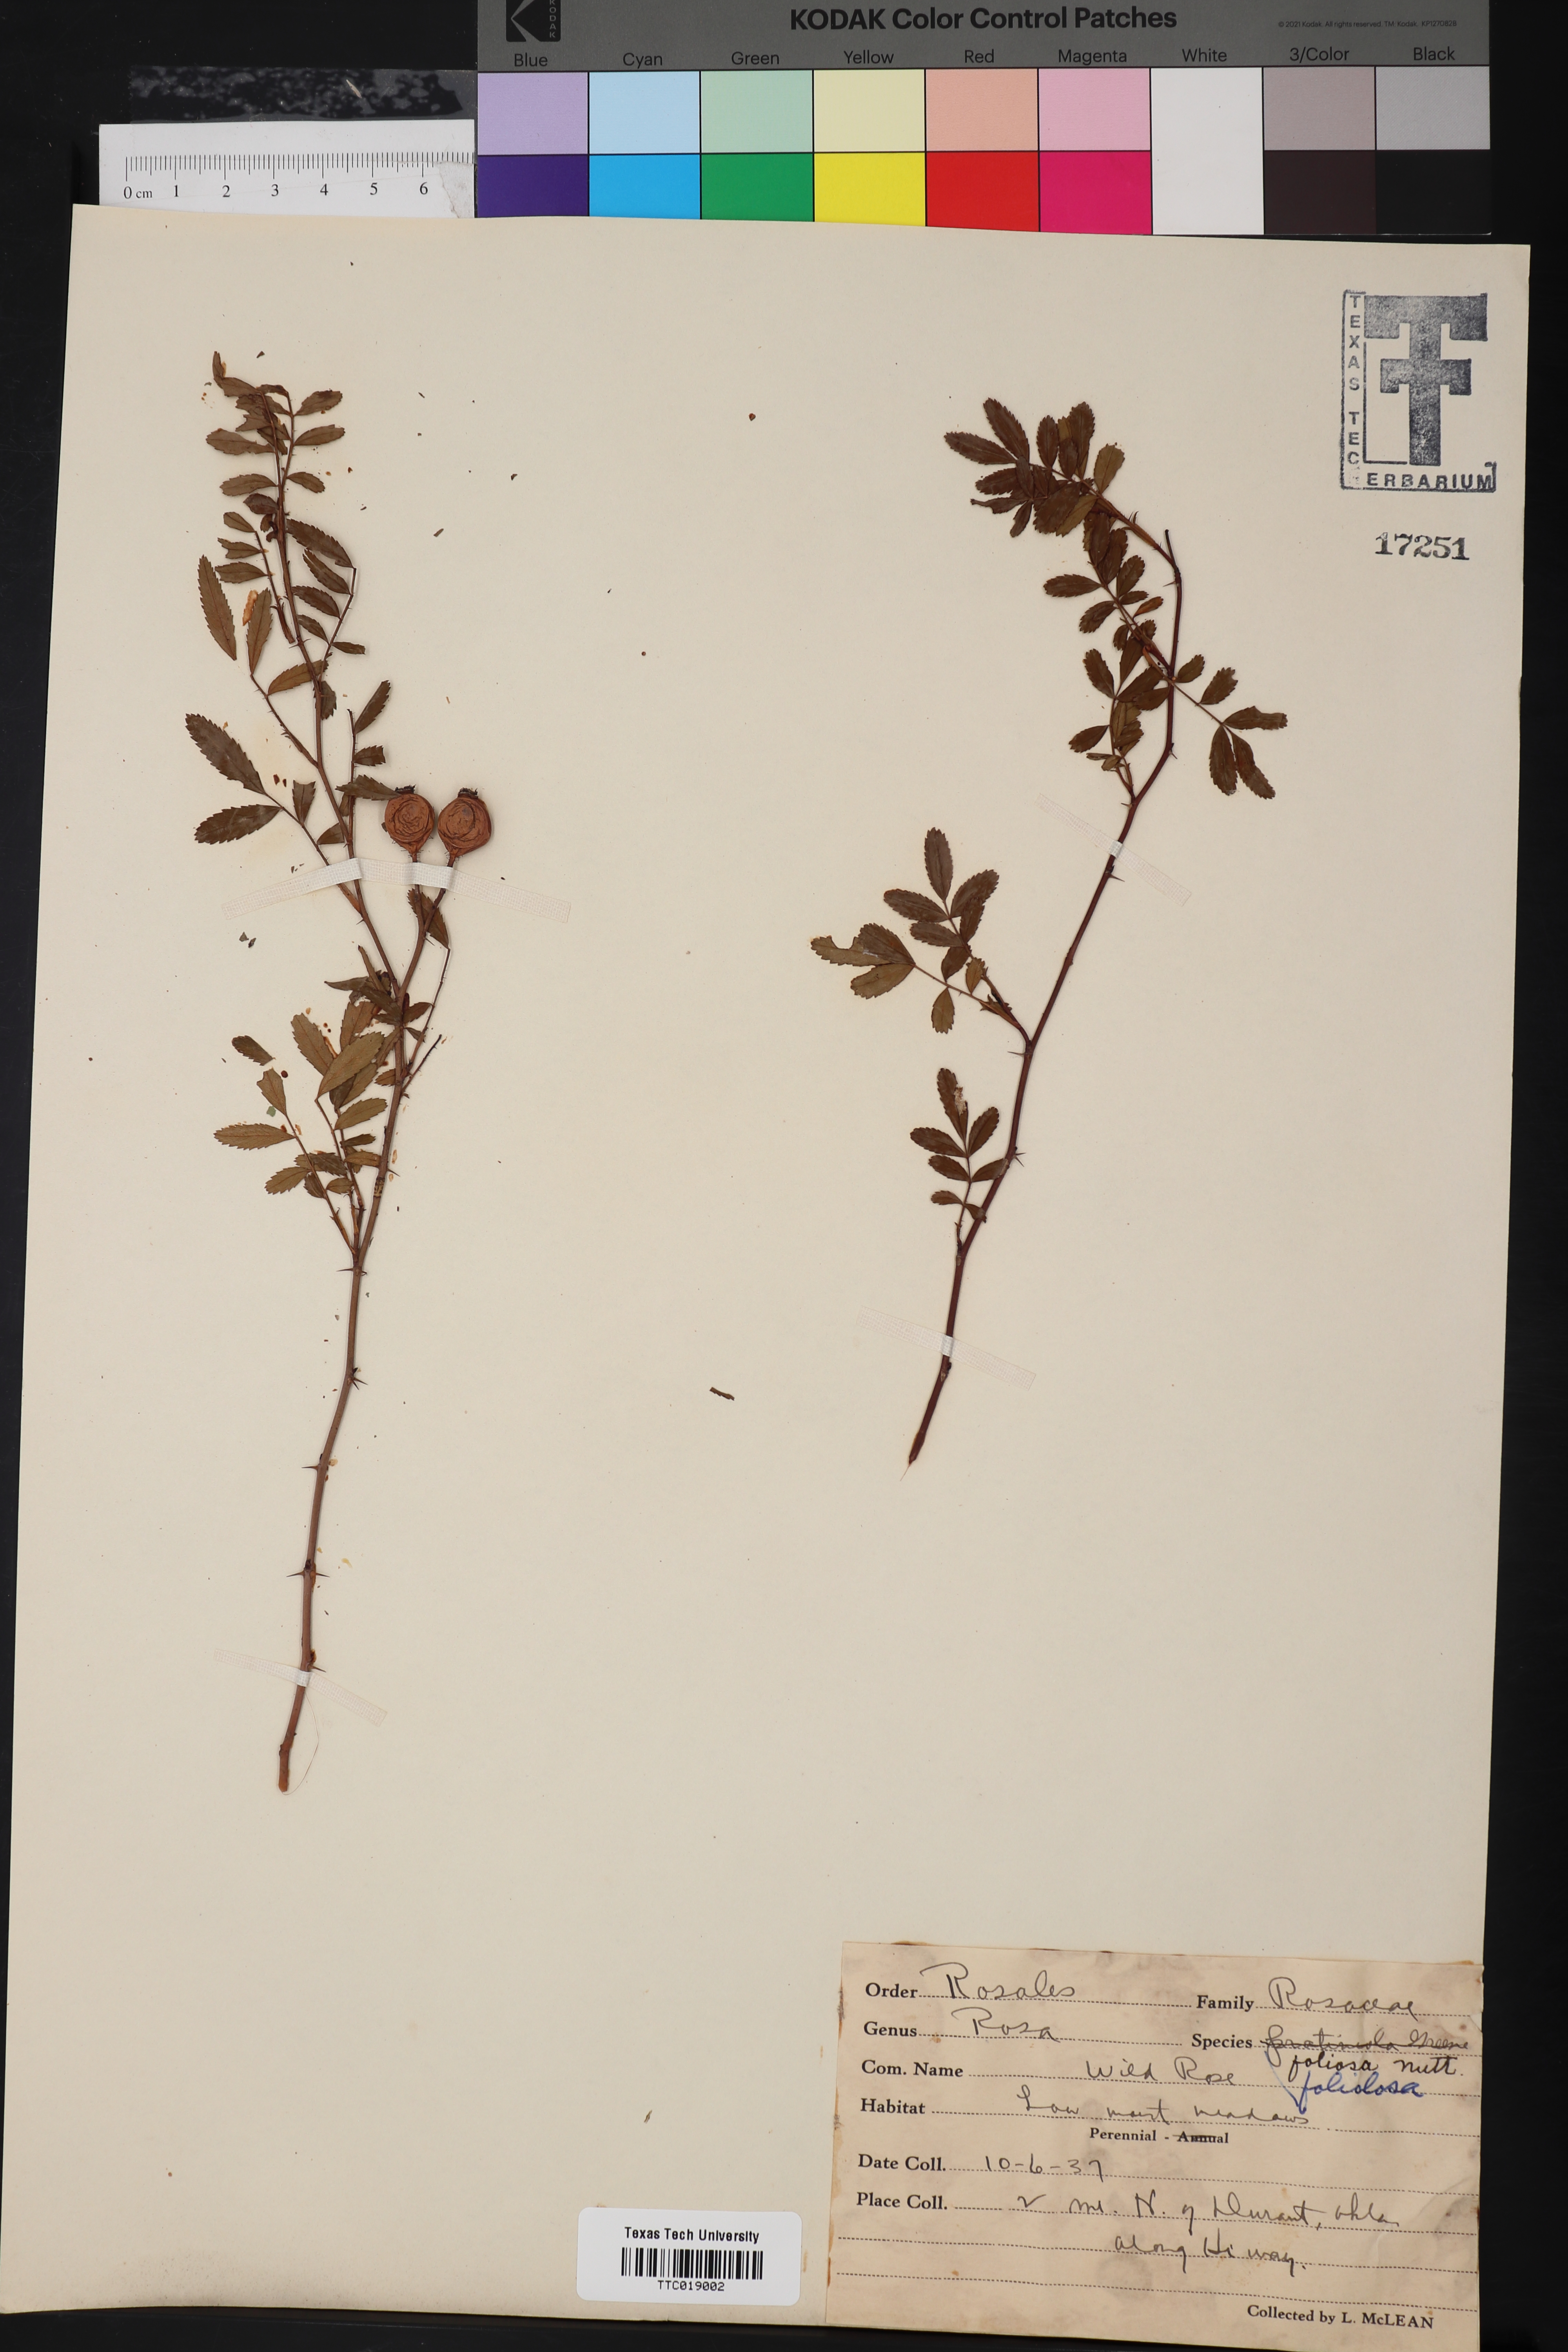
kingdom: Plantae
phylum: Tracheophyta
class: Magnoliopsida
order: Rosales
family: Rosaceae
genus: Rosa
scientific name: Rosa foliolosa
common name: White prairie rose
